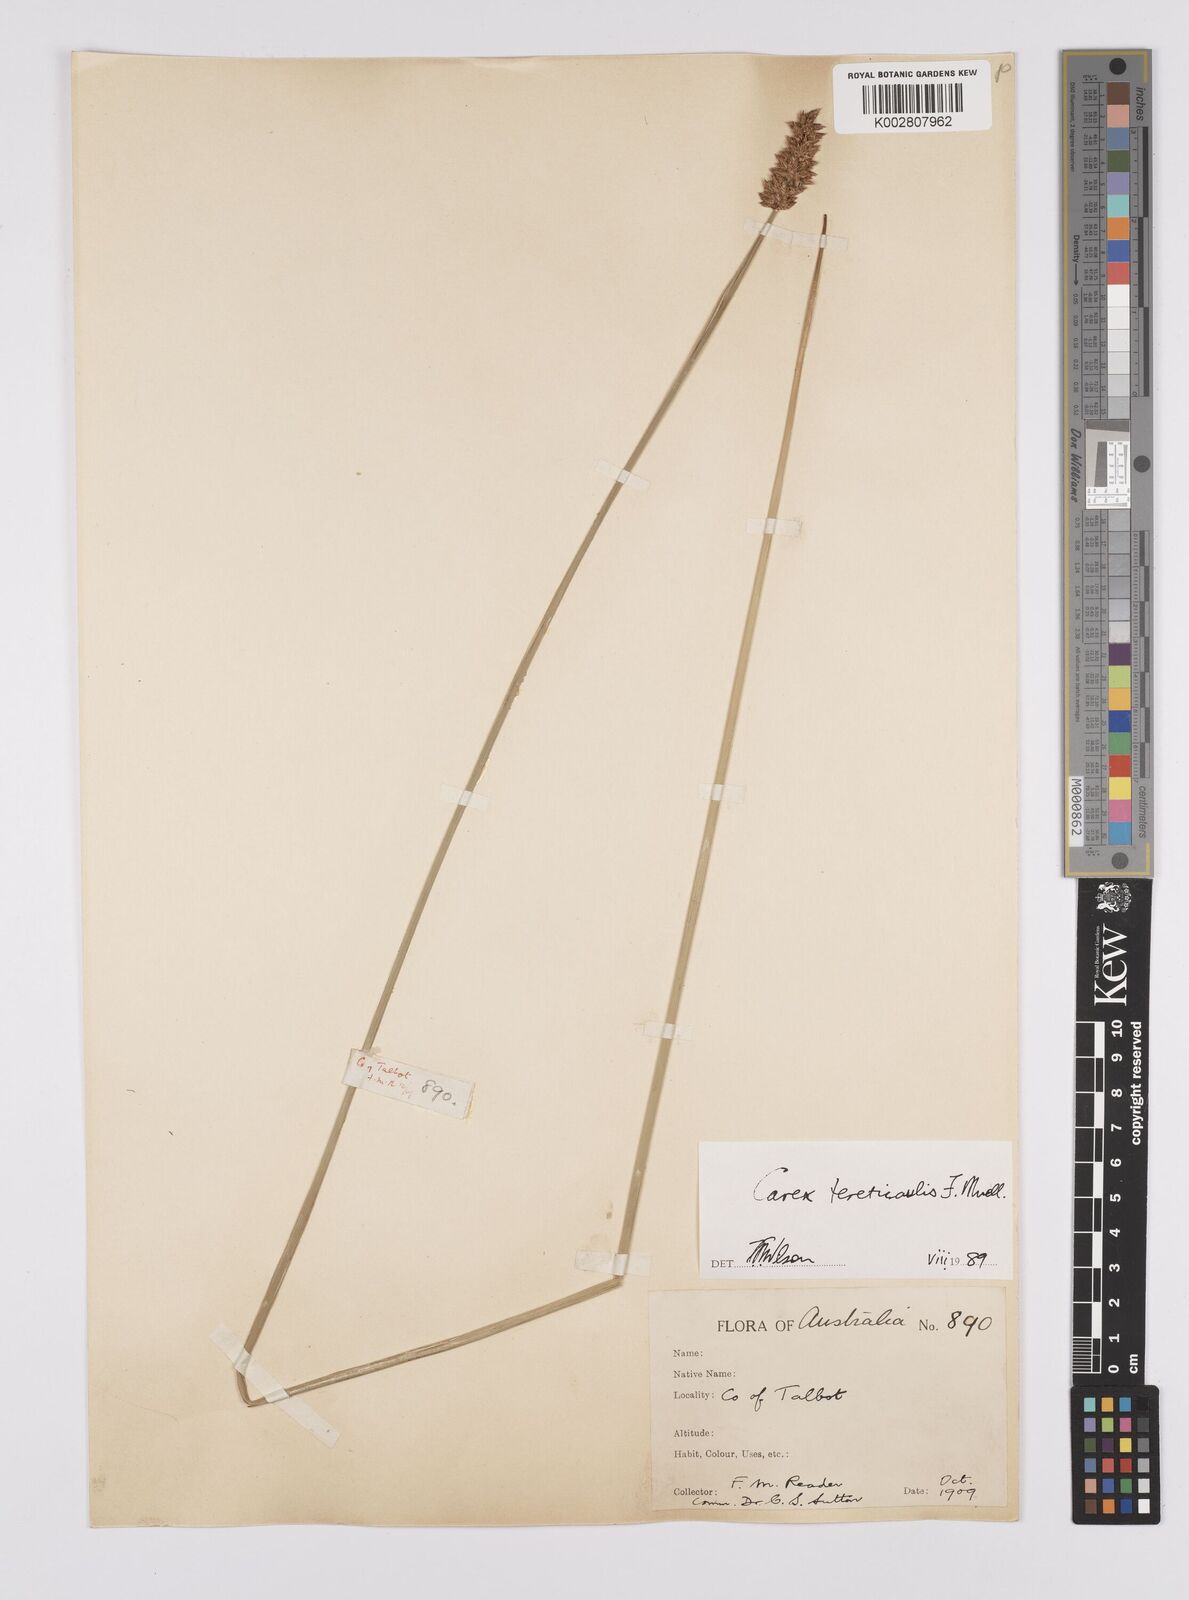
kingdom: Plantae
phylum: Tracheophyta
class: Liliopsida
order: Poales
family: Cyperaceae
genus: Carex
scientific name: Carex tereticaulis
